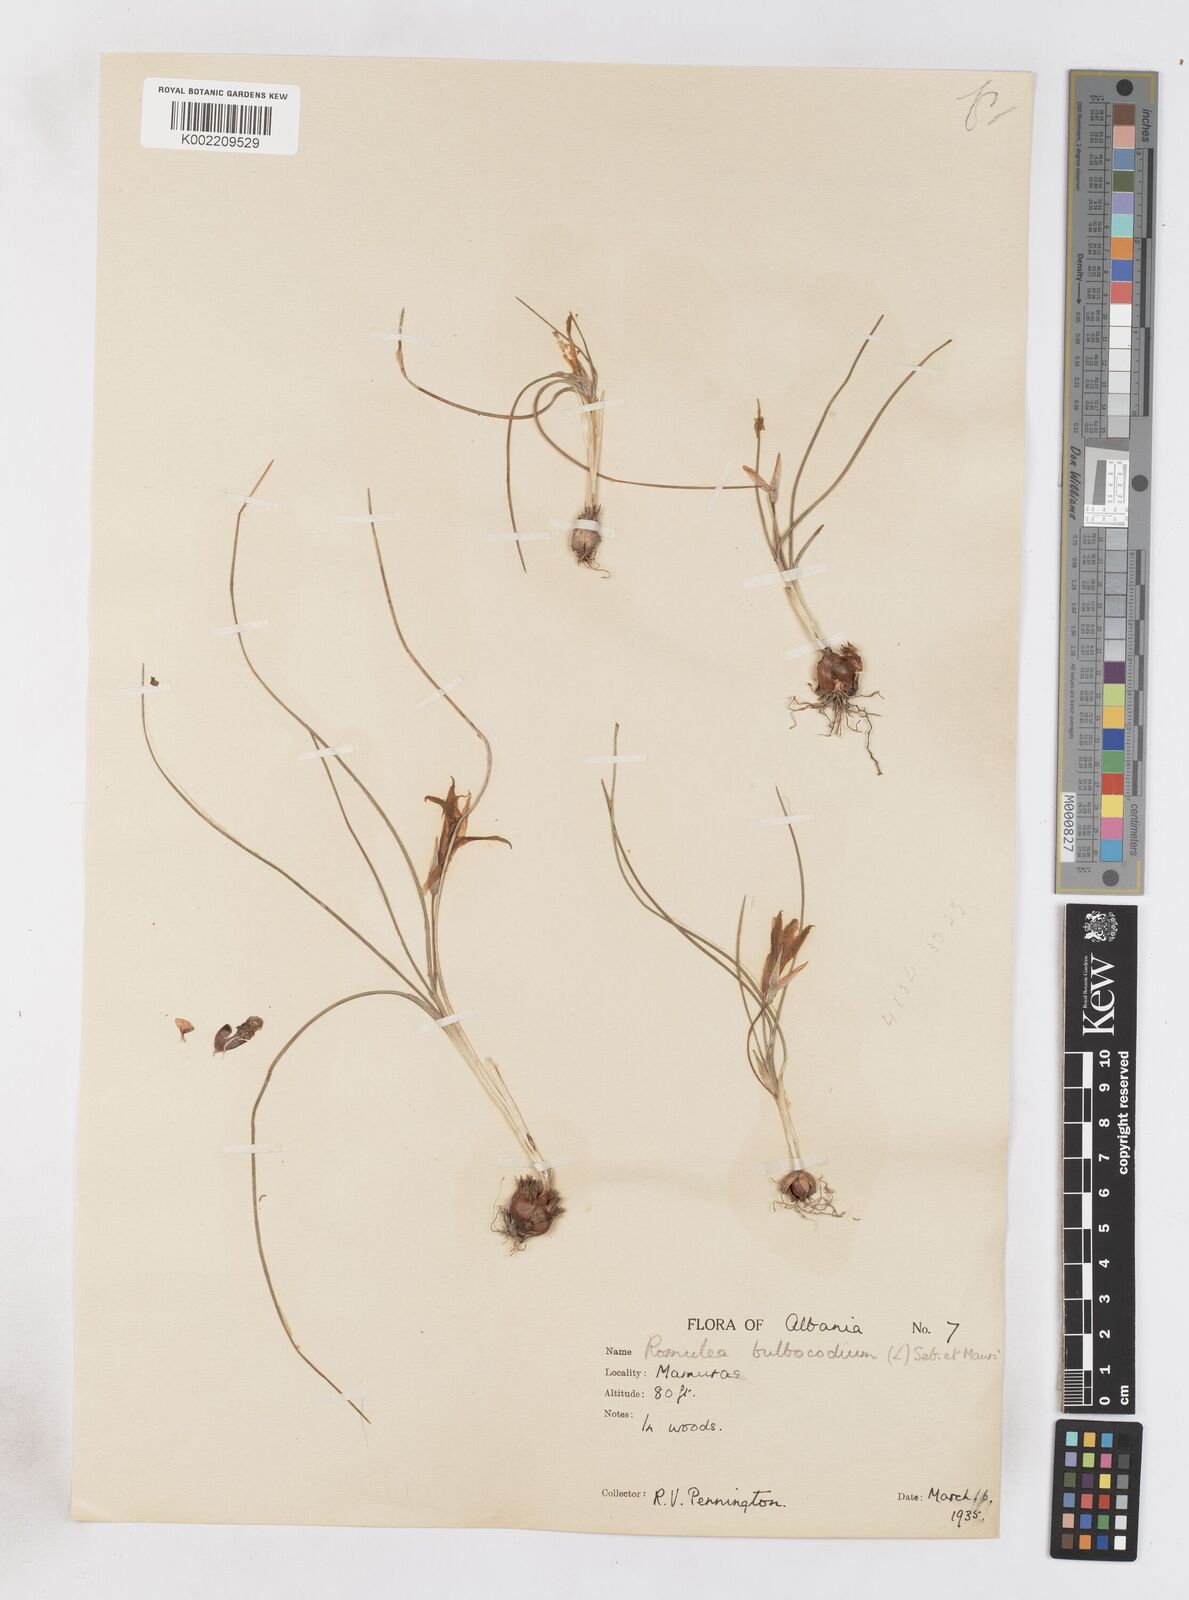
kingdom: Plantae
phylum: Tracheophyta
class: Liliopsida
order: Asparagales
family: Iridaceae
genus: Romulea
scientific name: Romulea bulbocodium
